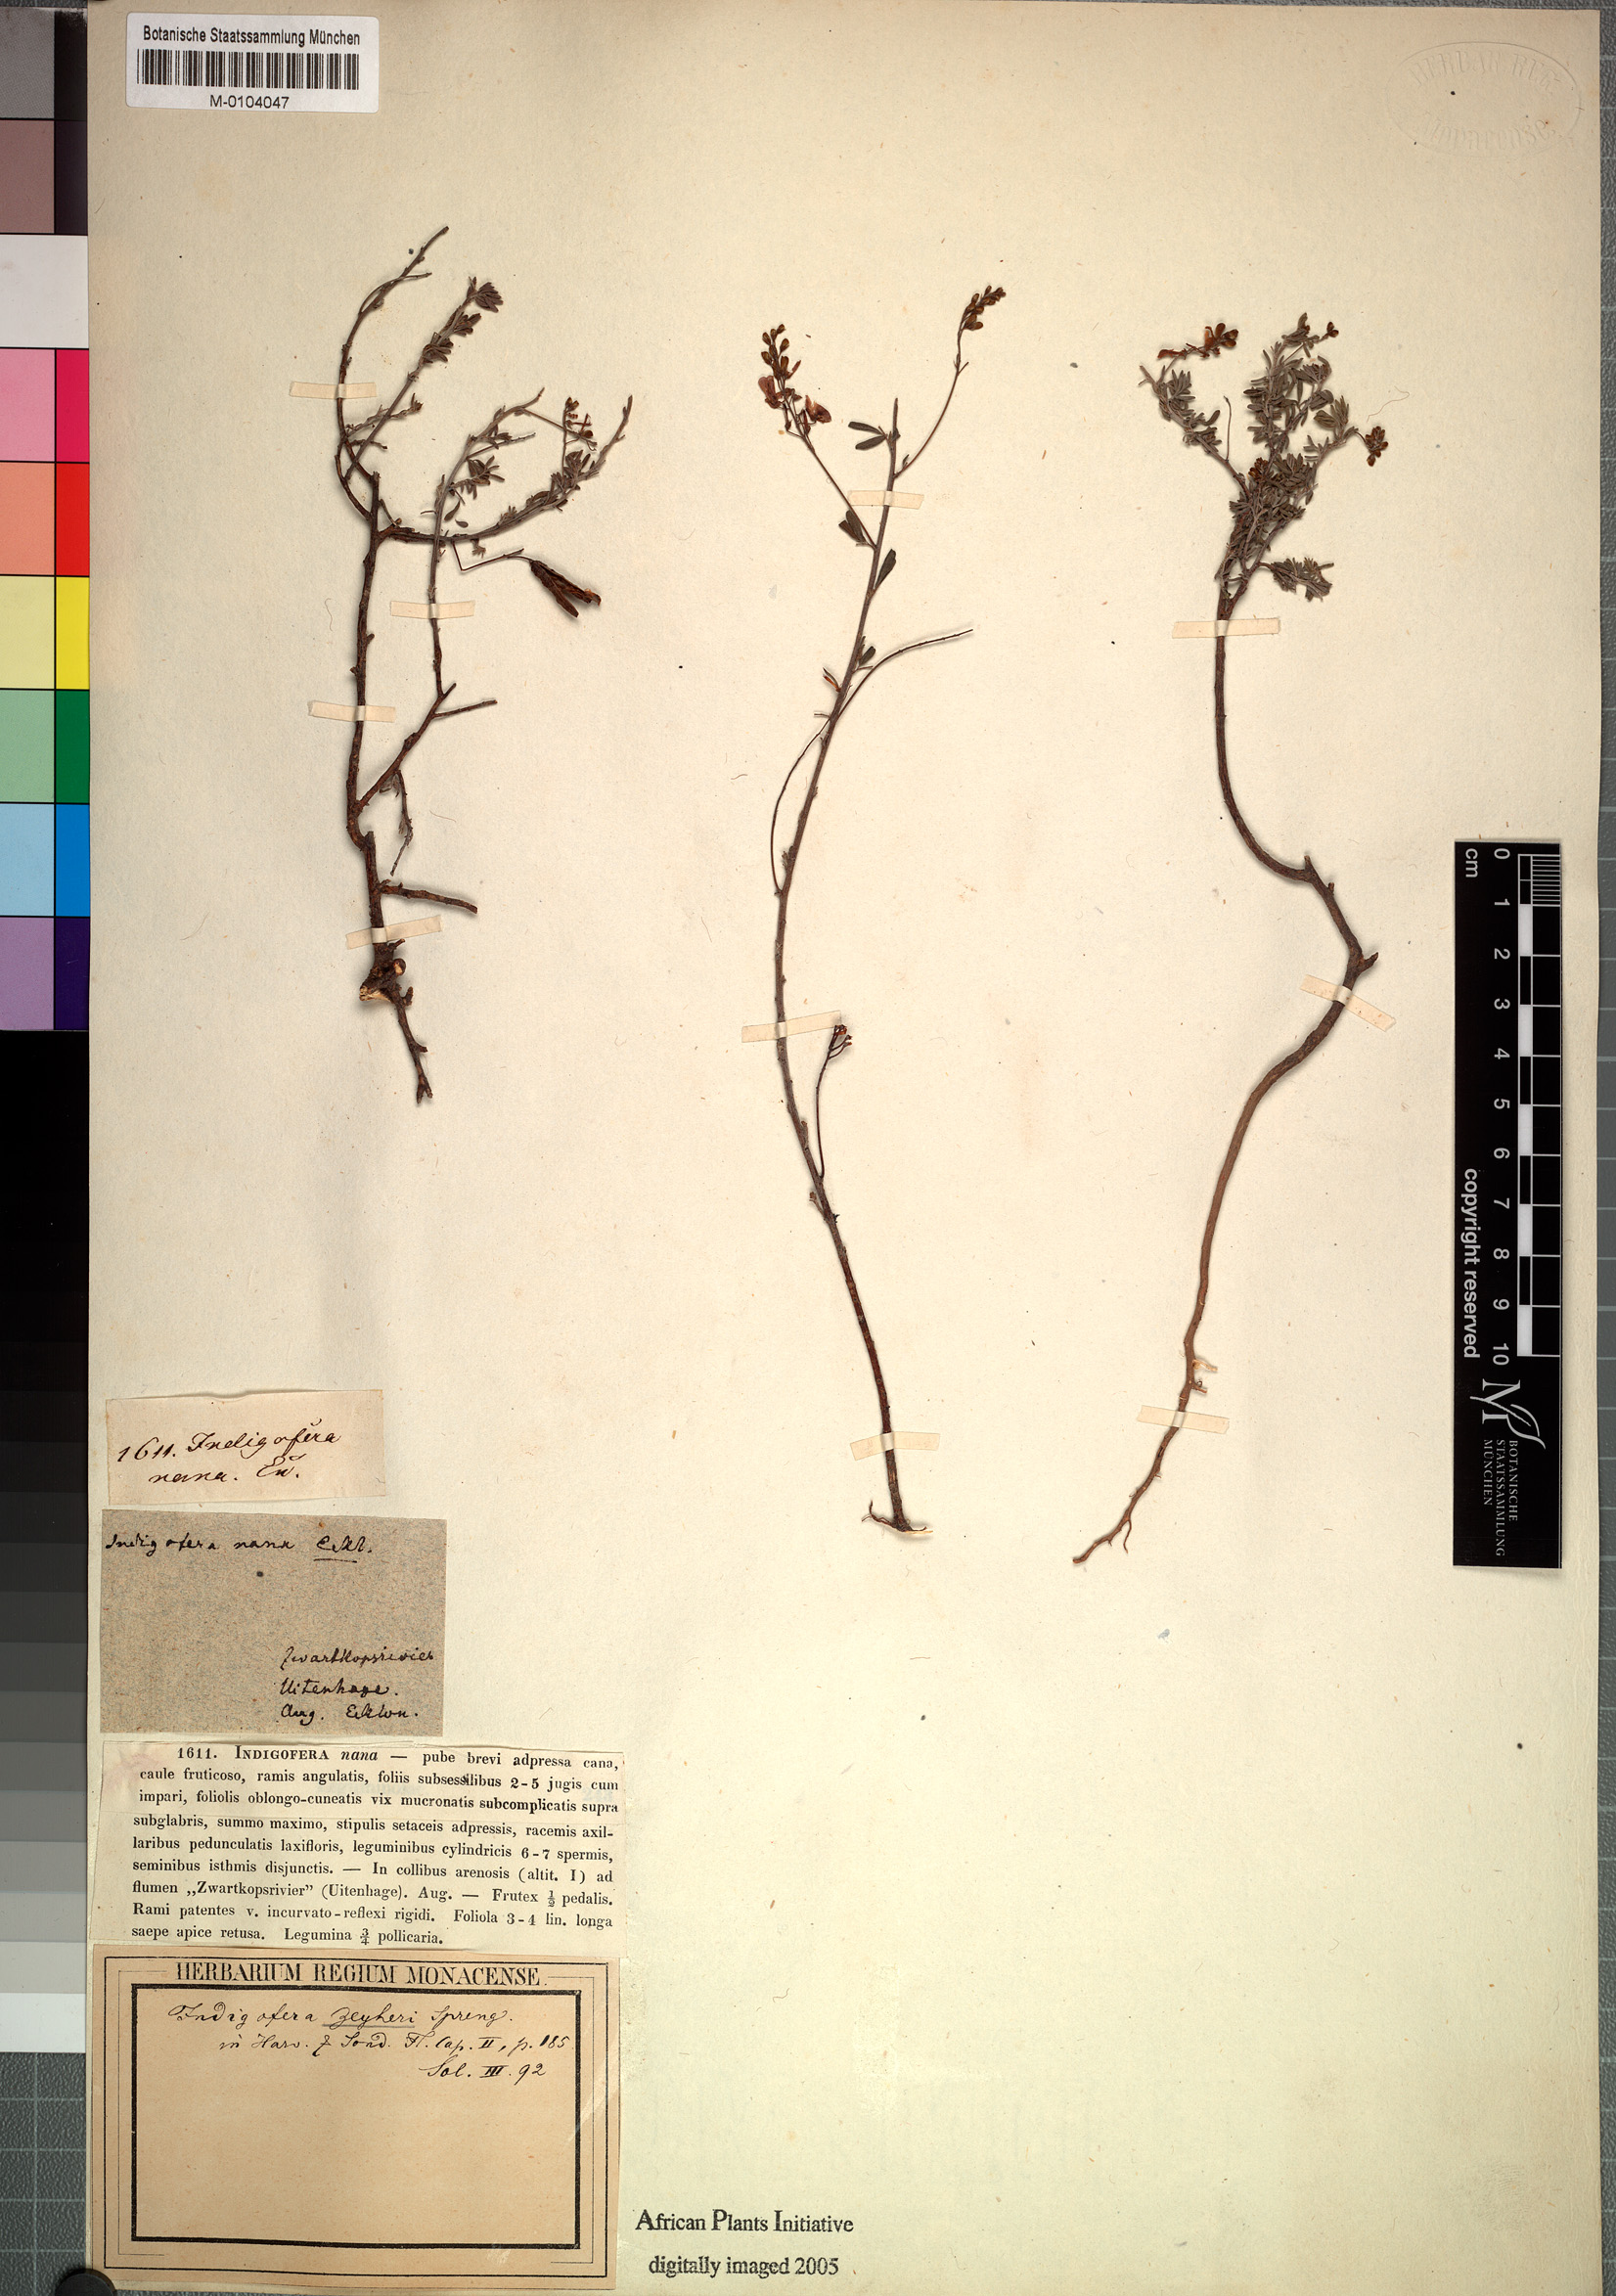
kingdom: Plantae
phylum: Tracheophyta
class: Magnoliopsida
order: Fabales
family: Fabaceae
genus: Indigofera
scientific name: Indigofera punctata
